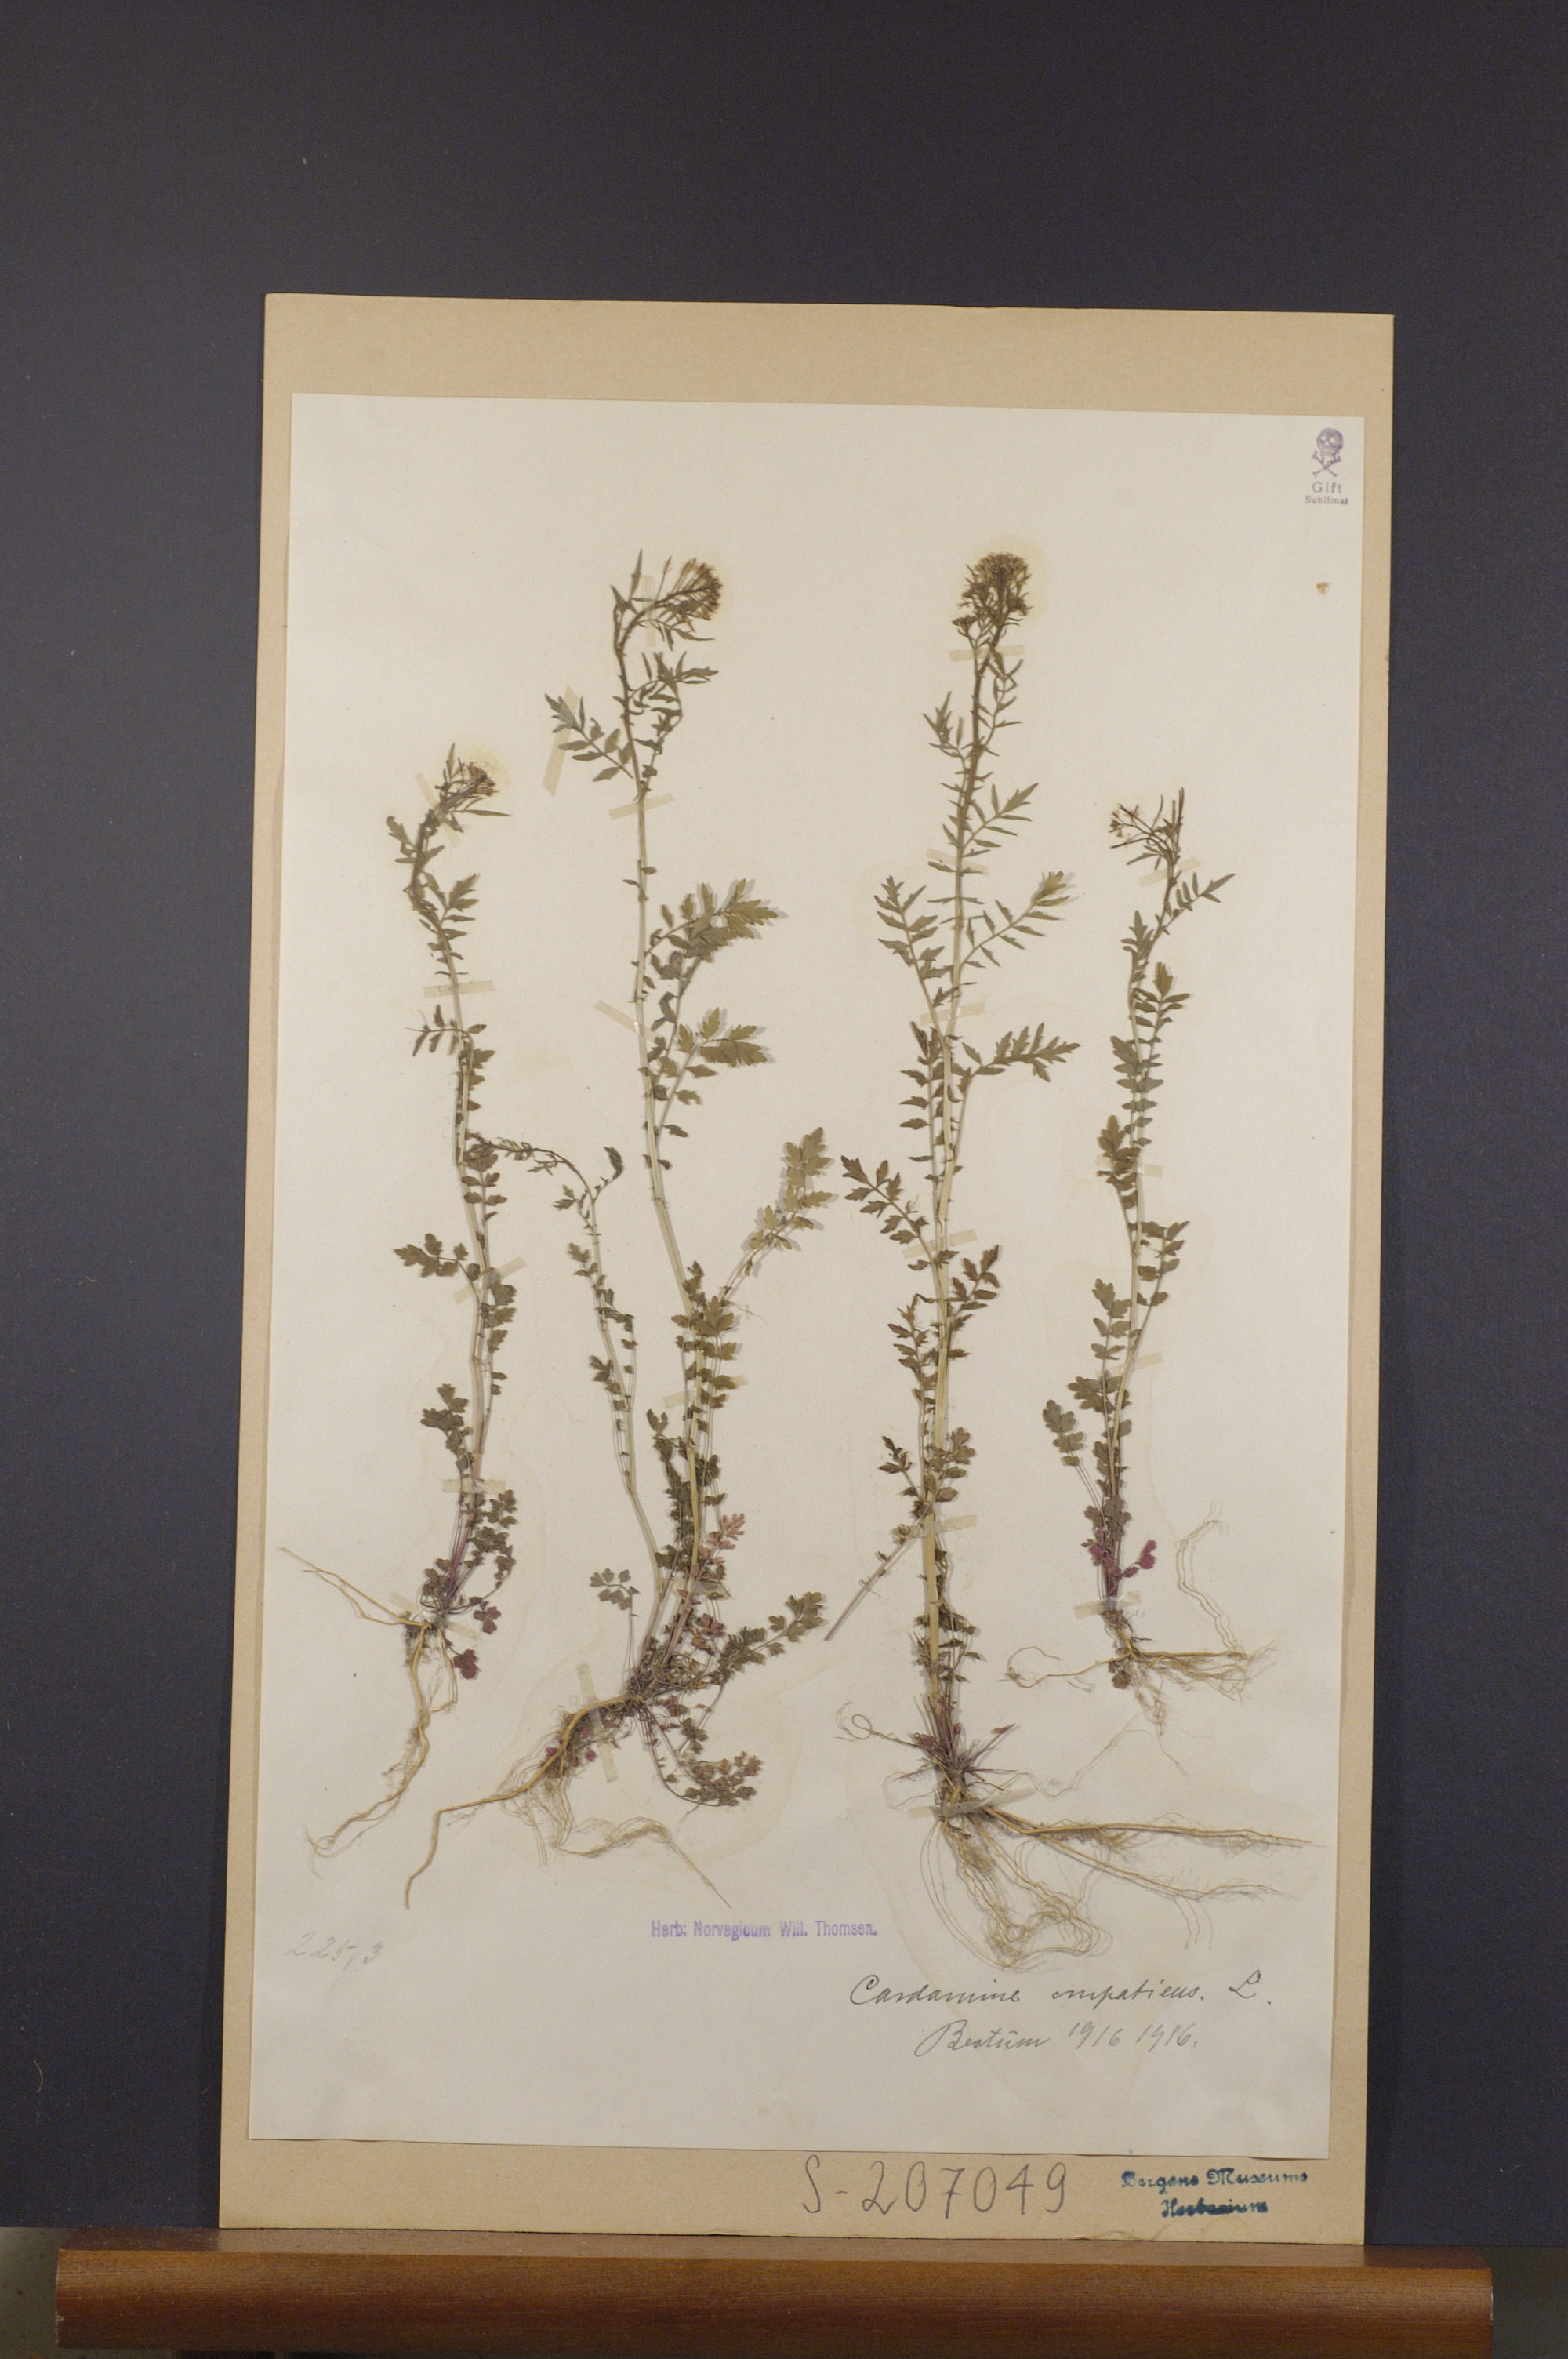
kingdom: Plantae
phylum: Tracheophyta
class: Magnoliopsida
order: Brassicales
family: Brassicaceae
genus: Cardamine
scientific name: Cardamine impatiens
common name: Narrow-leaved bitter-cress
